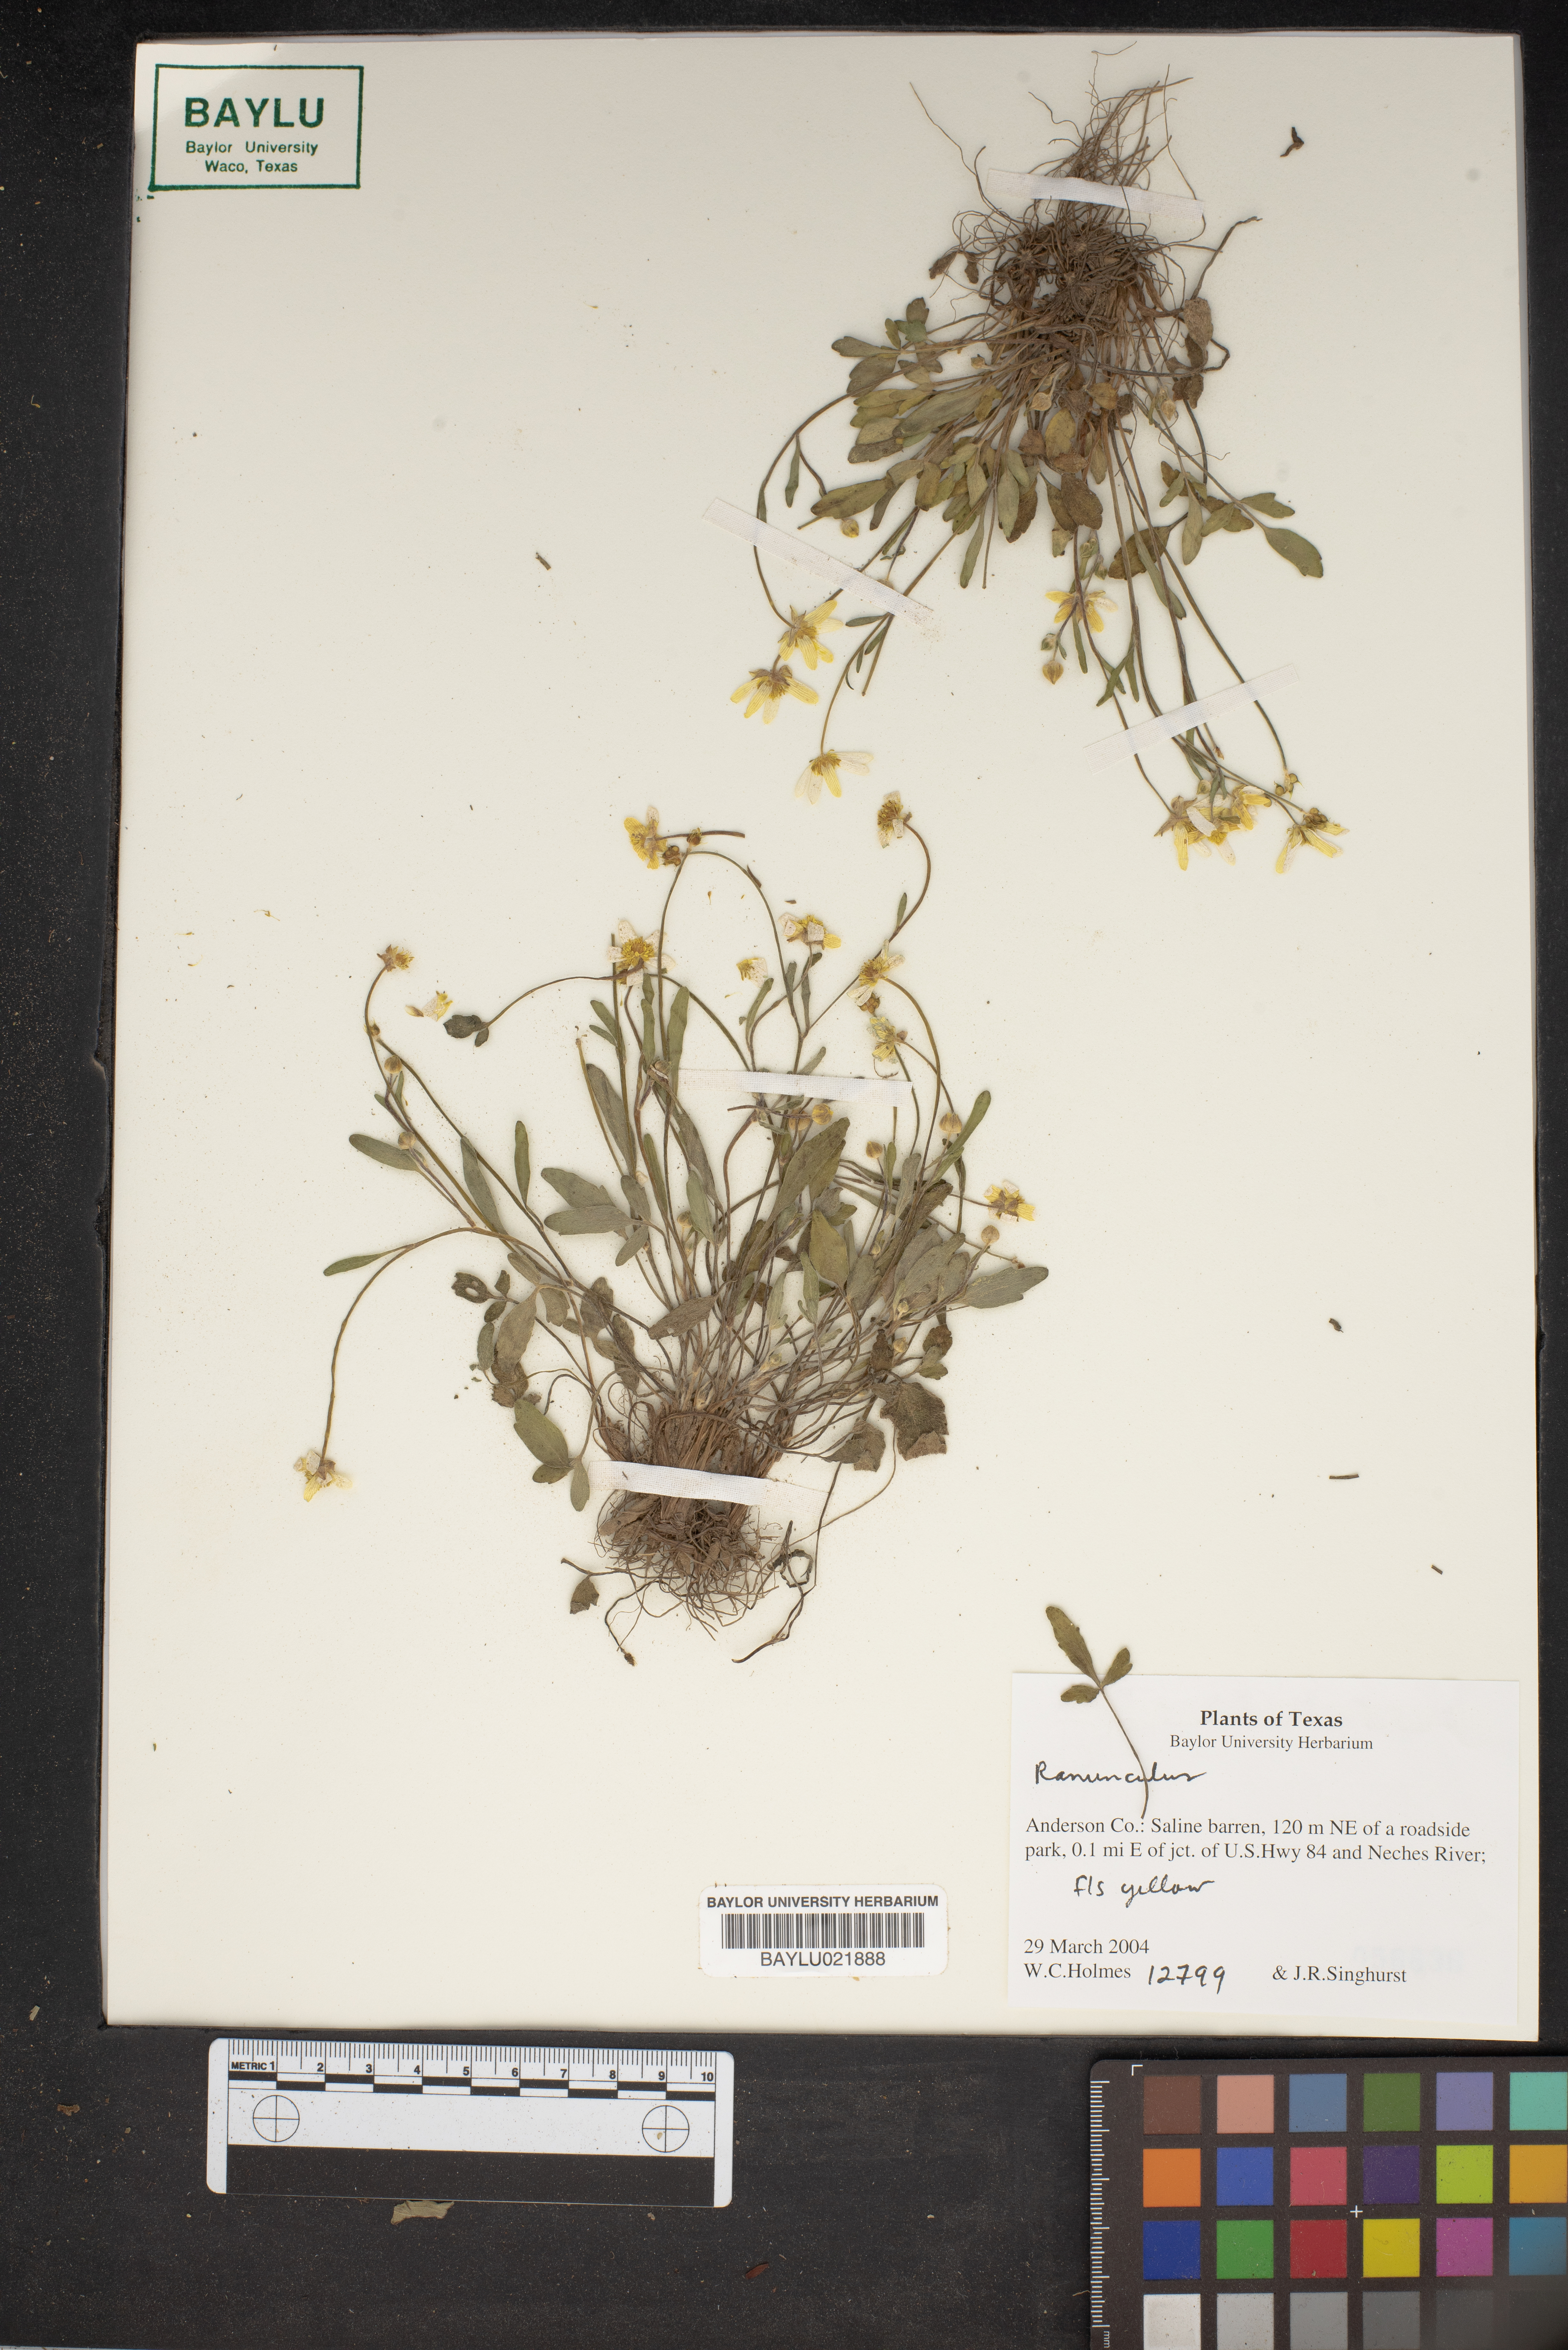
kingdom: Plantae
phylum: Tracheophyta
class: Magnoliopsida
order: Ranunculales
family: Ranunculaceae
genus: Ranunculus
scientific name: Ranunculus
